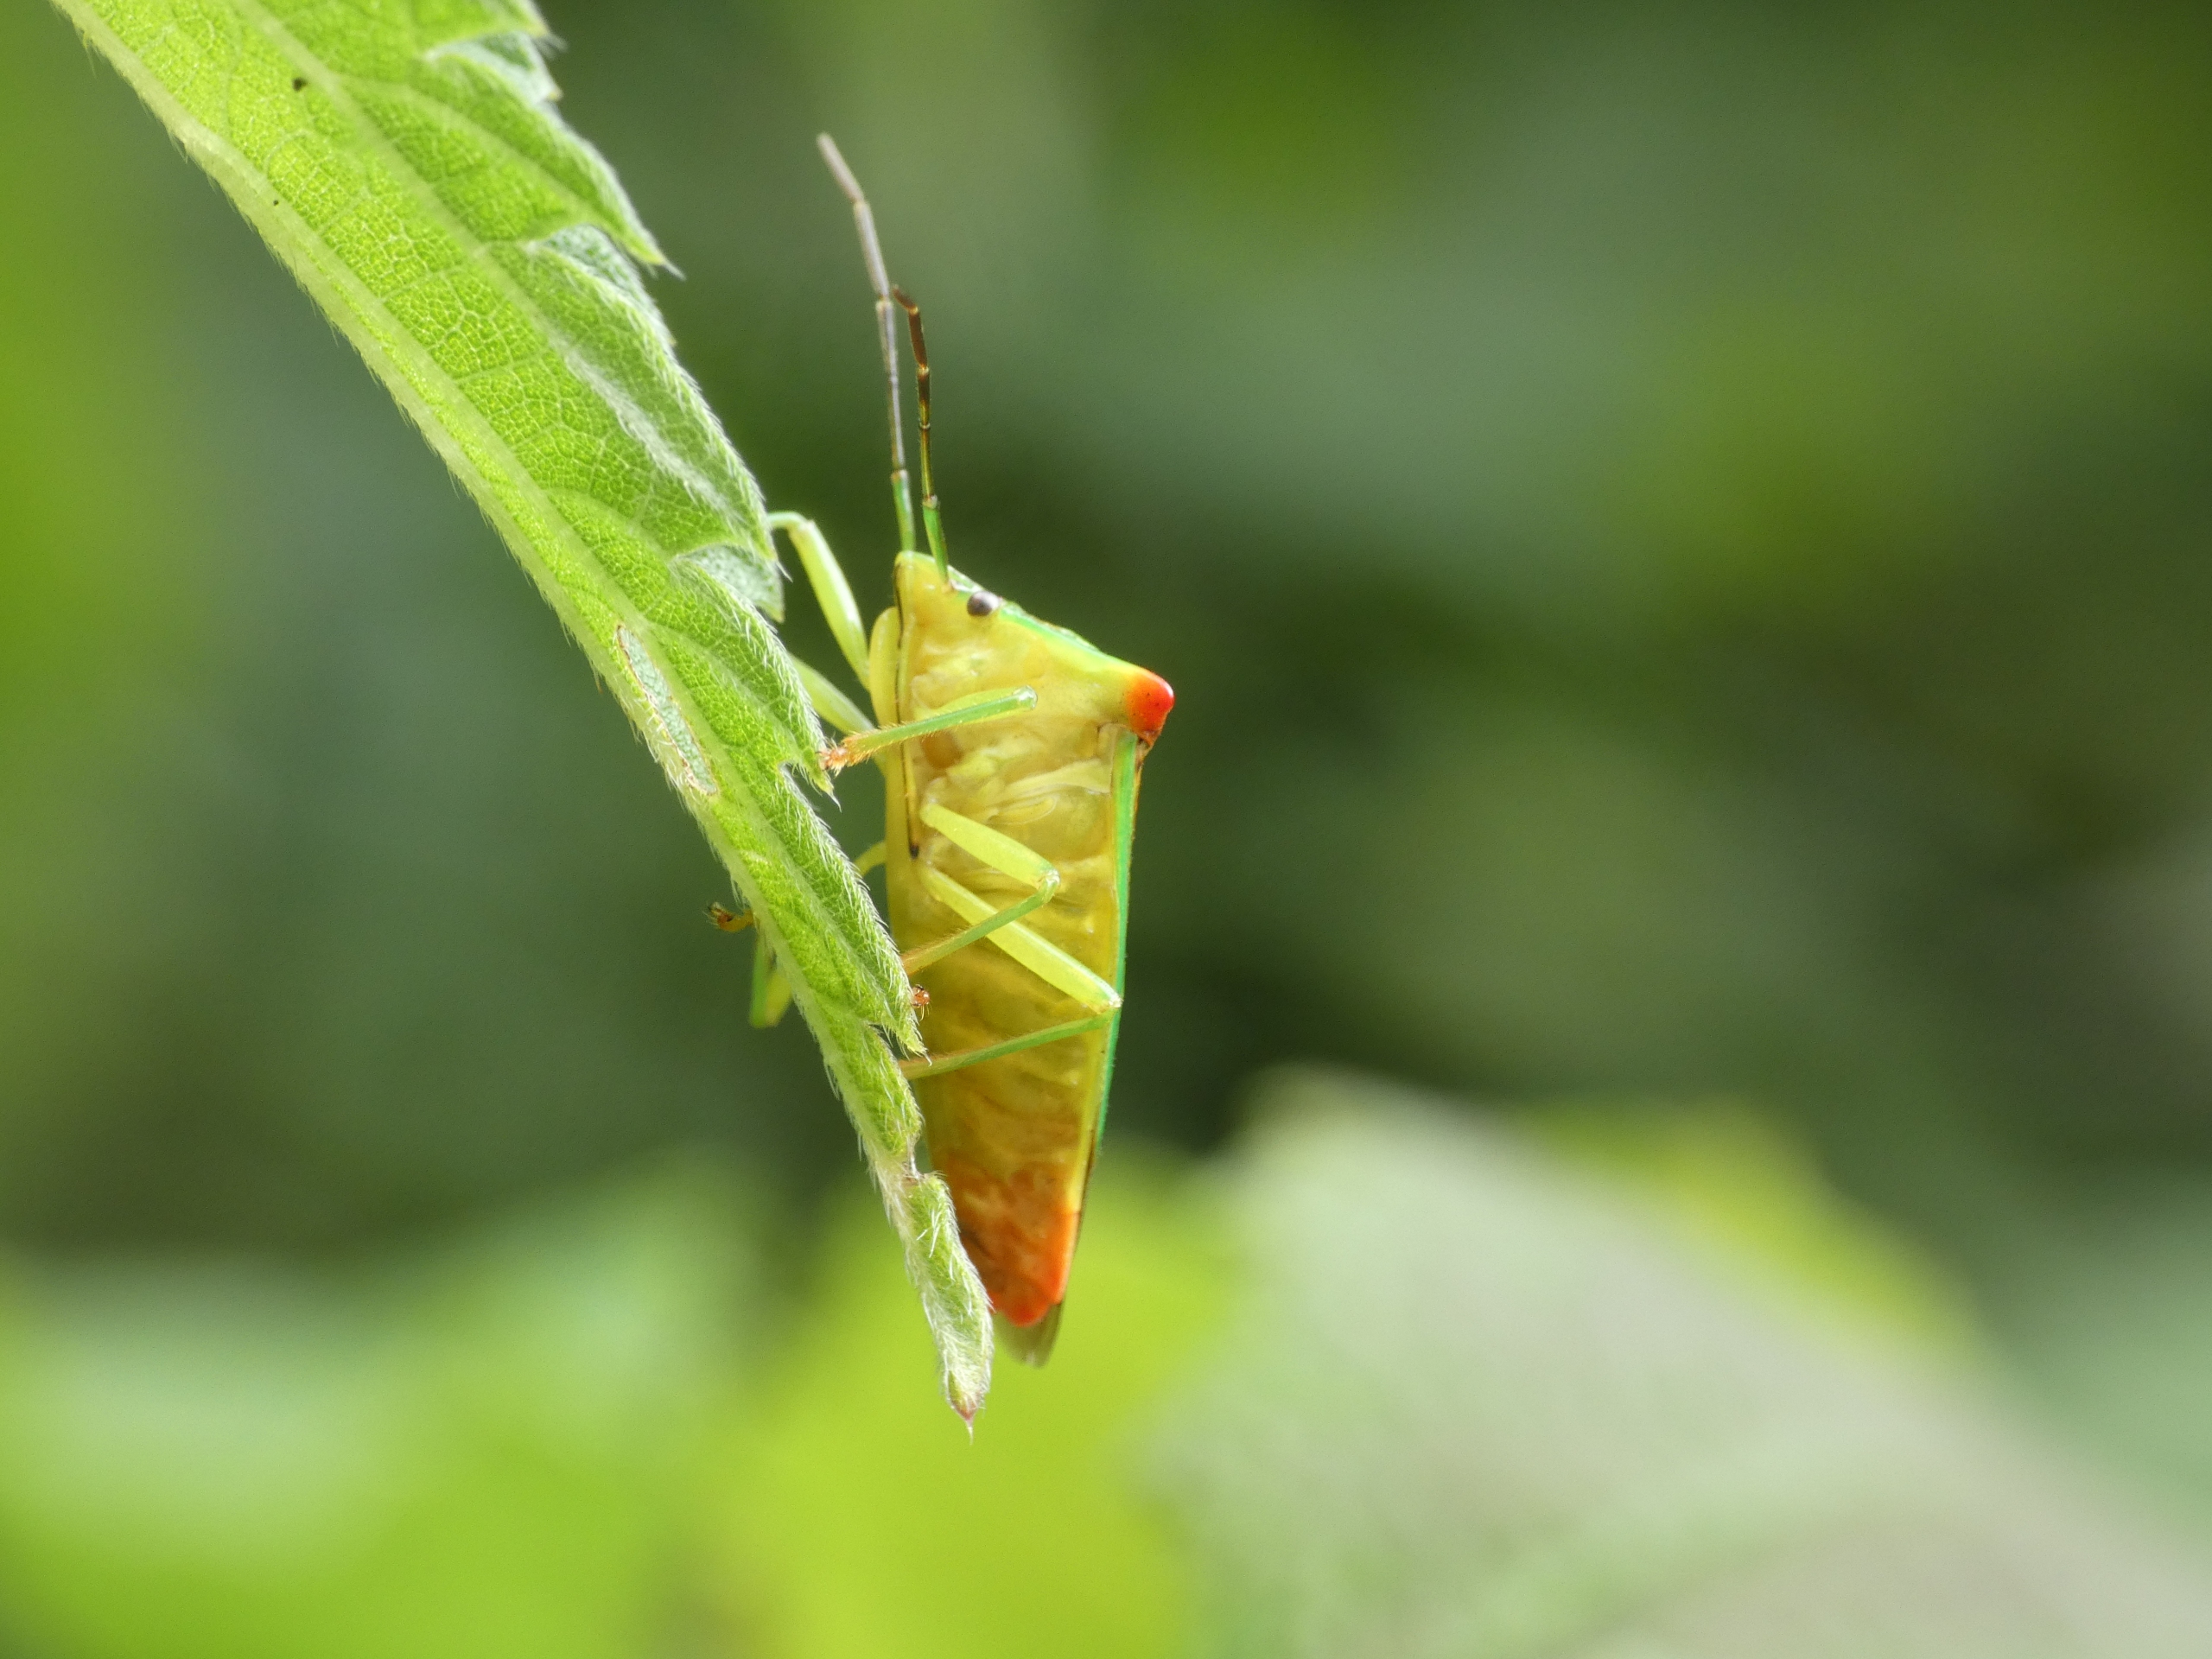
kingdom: Animalia
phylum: Arthropoda
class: Insecta
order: Hemiptera
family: Acanthosomatidae
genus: Acanthosoma
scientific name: Acanthosoma haemorrhoidale
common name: Stor løvtæge
